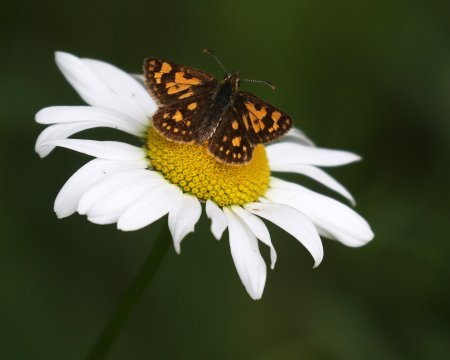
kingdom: Animalia
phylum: Arthropoda
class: Insecta
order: Lepidoptera
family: Hesperiidae
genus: Carterocephalus
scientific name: Carterocephalus palaemon
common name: Chequered Skipper
